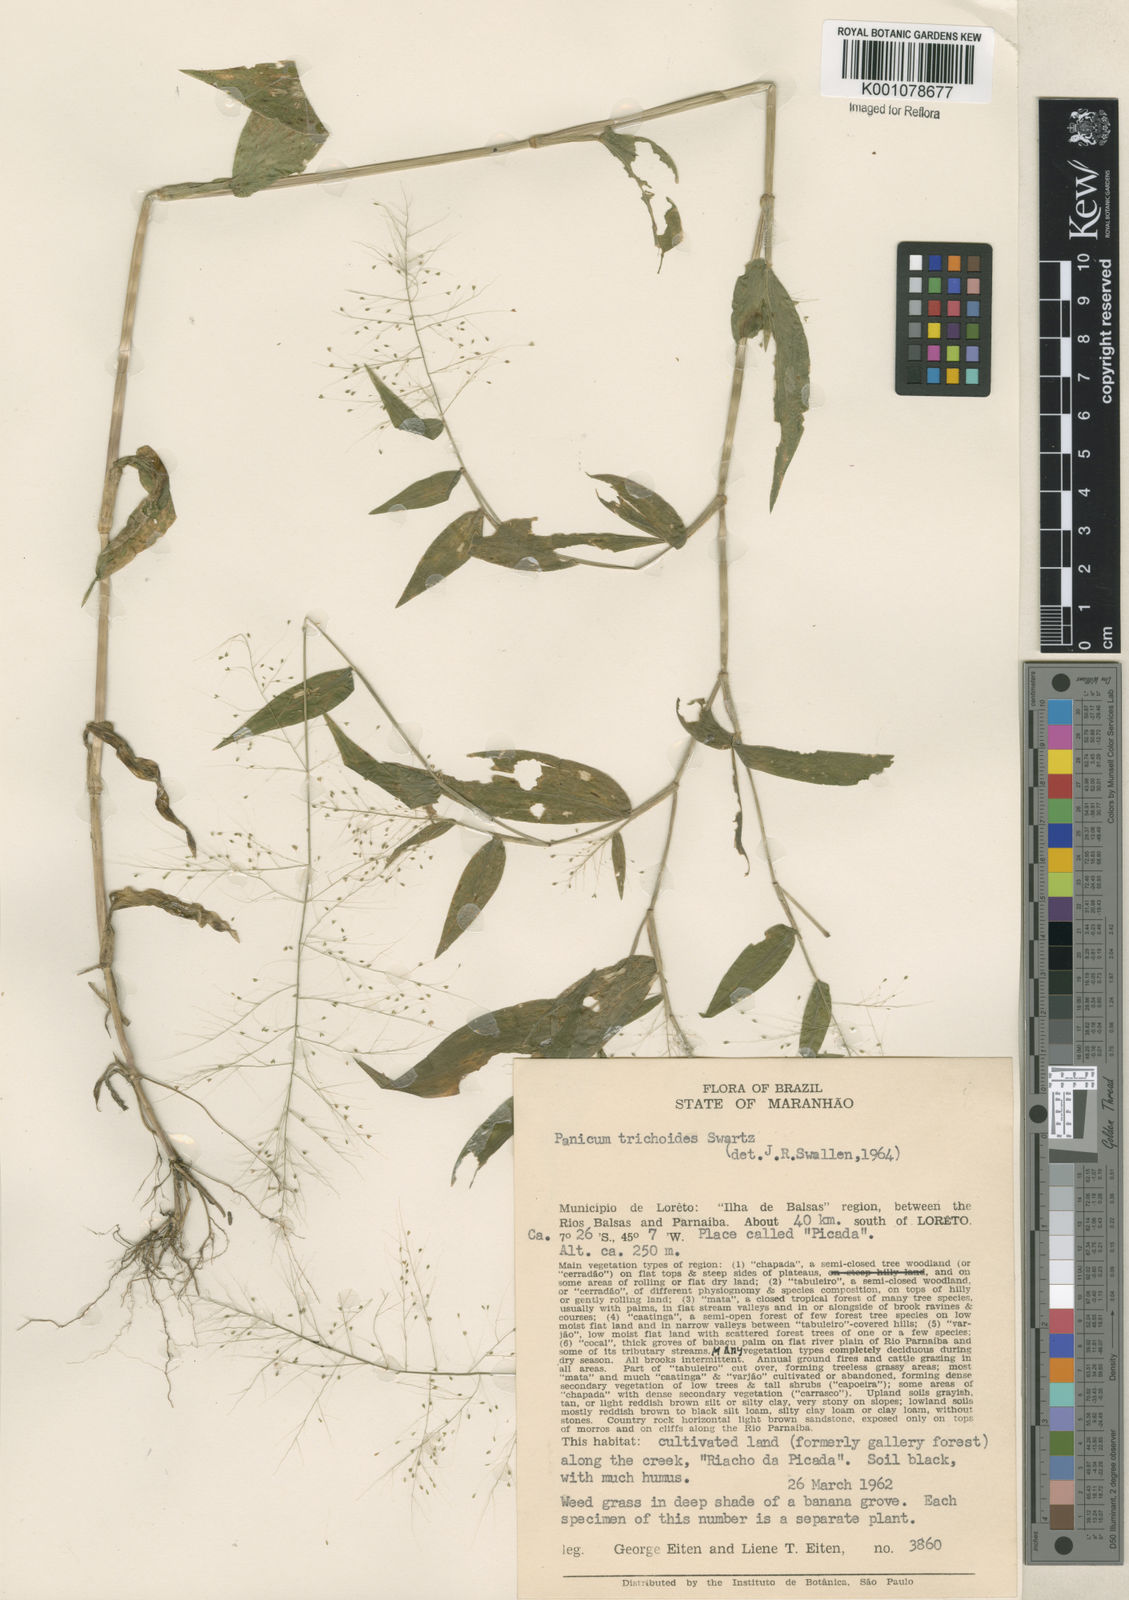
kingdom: Plantae
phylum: Tracheophyta
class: Liliopsida
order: Poales
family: Poaceae
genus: Panicum
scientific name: Panicum trichoides
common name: Tickle grass
